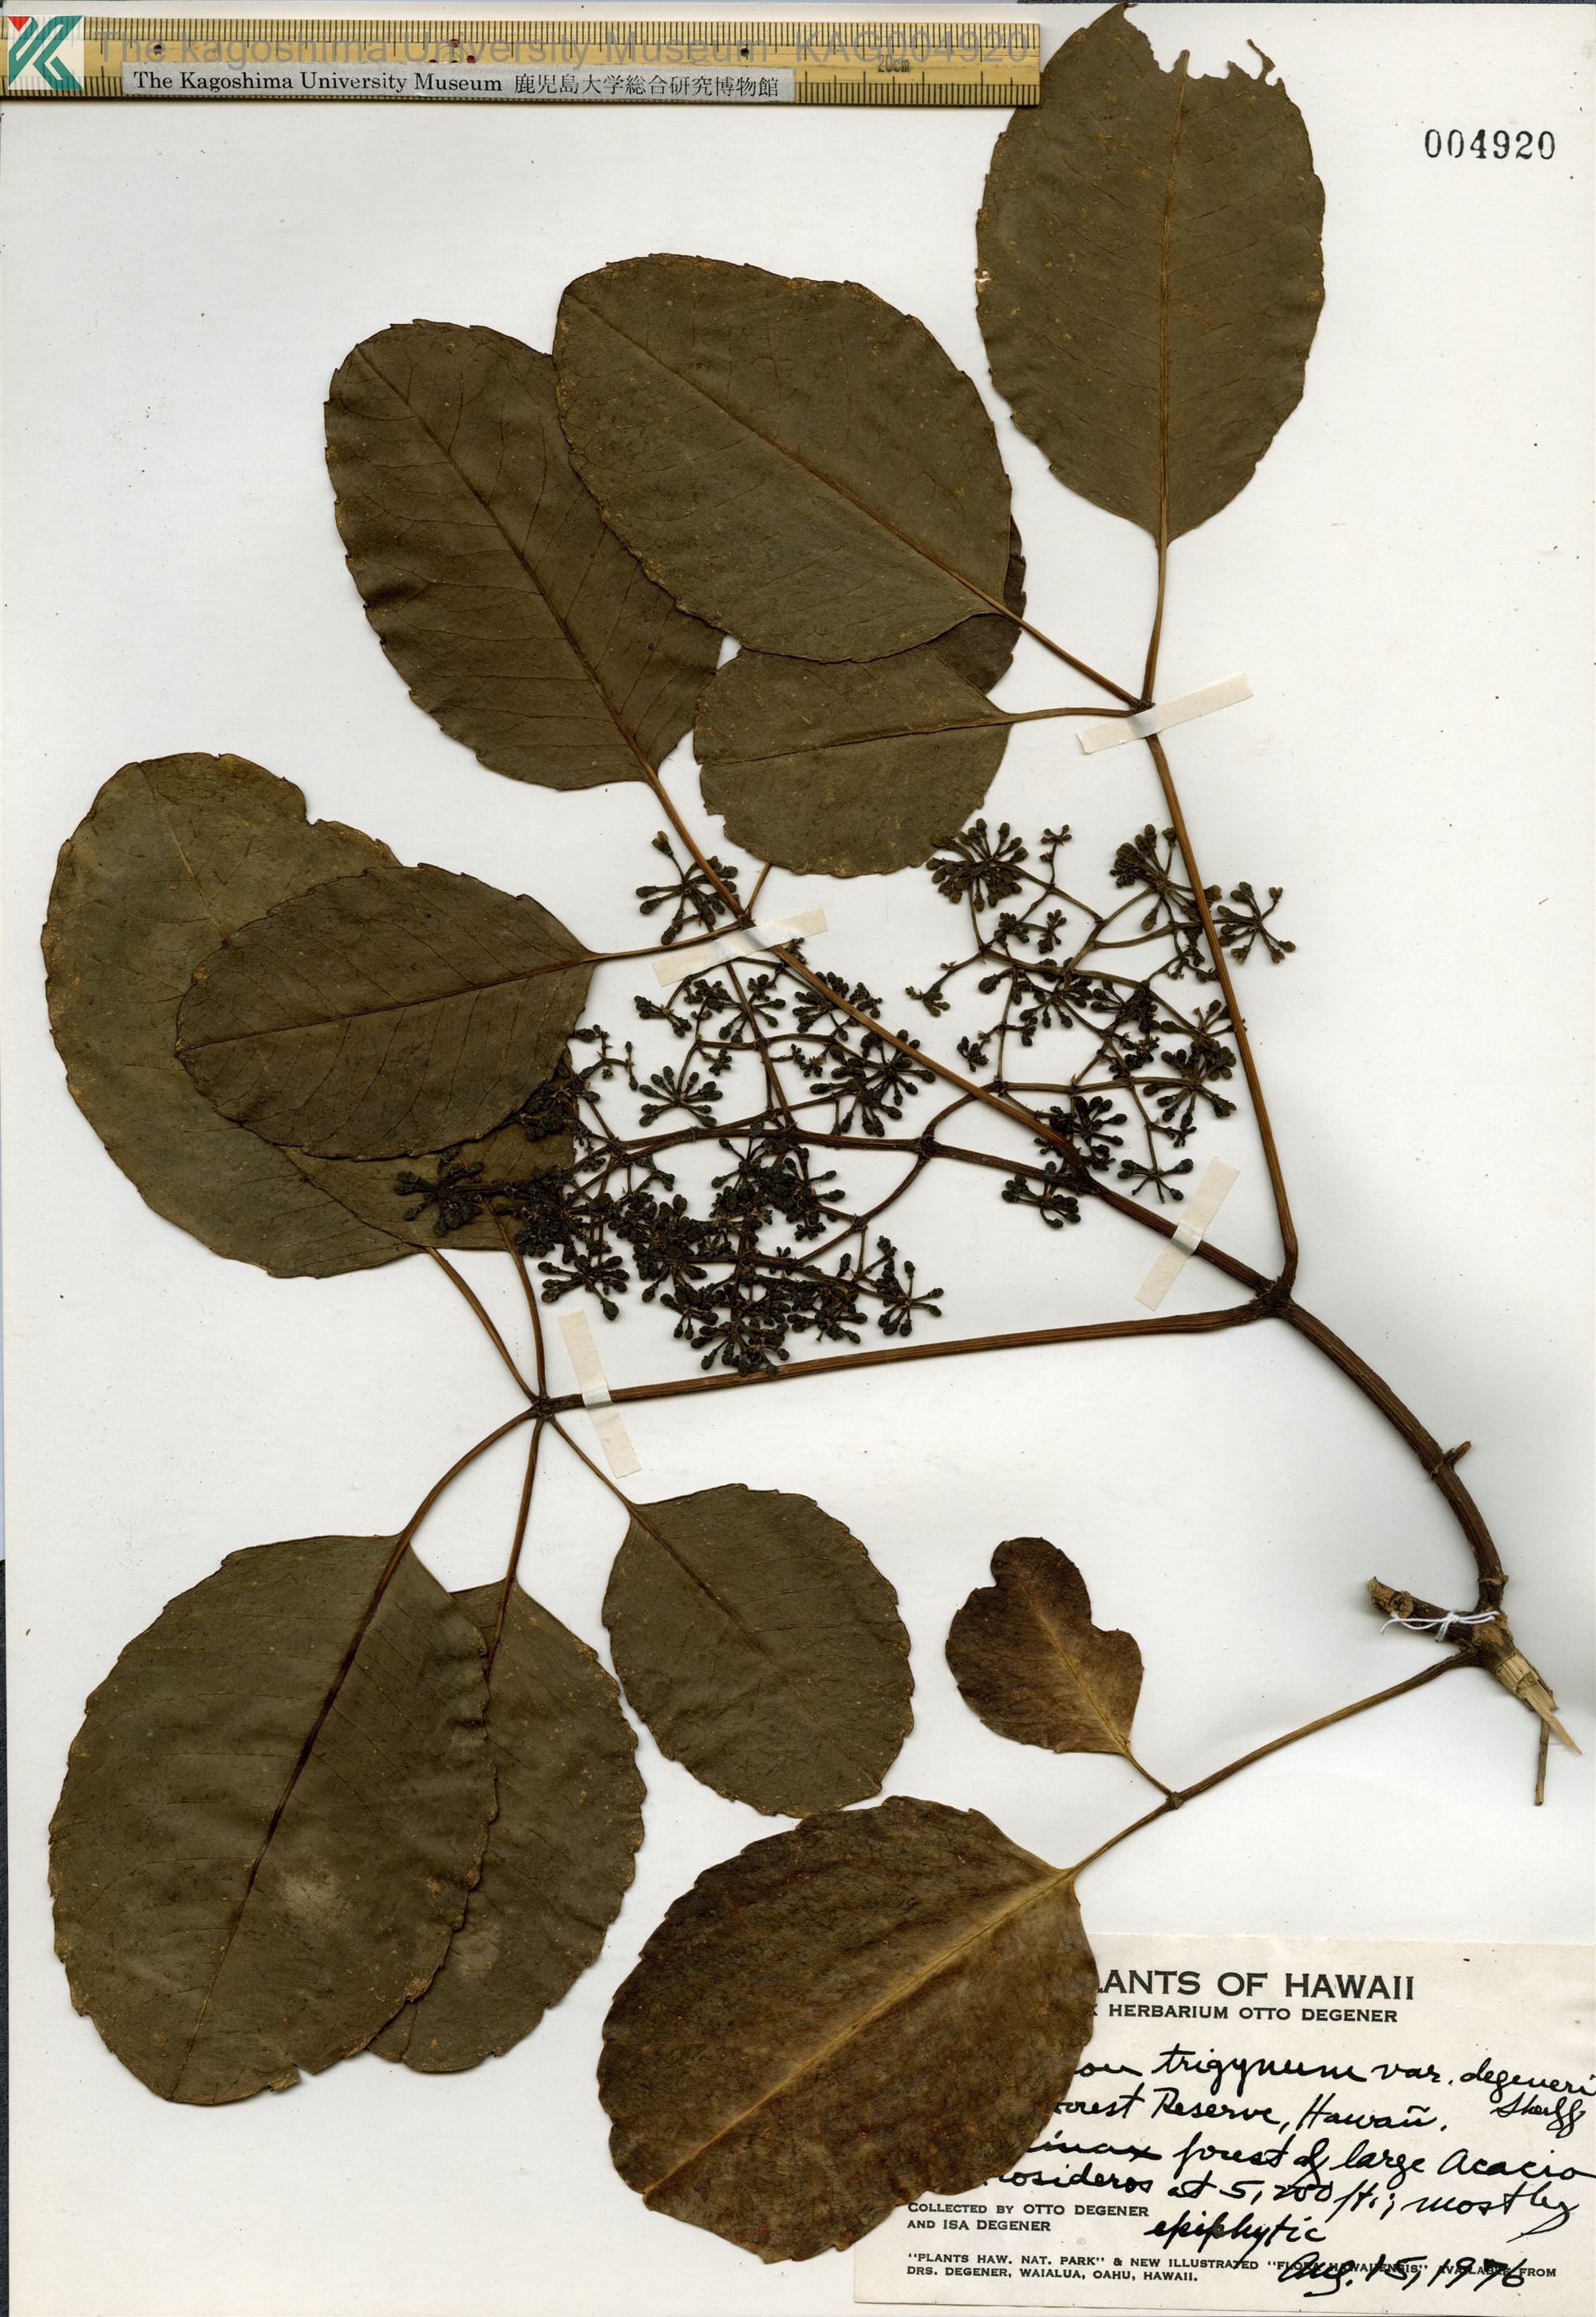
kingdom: Plantae
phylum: Tracheophyta
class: Magnoliopsida
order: Apiales
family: Araliaceae
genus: Cheirodendron
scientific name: Cheirodendron trigynum
